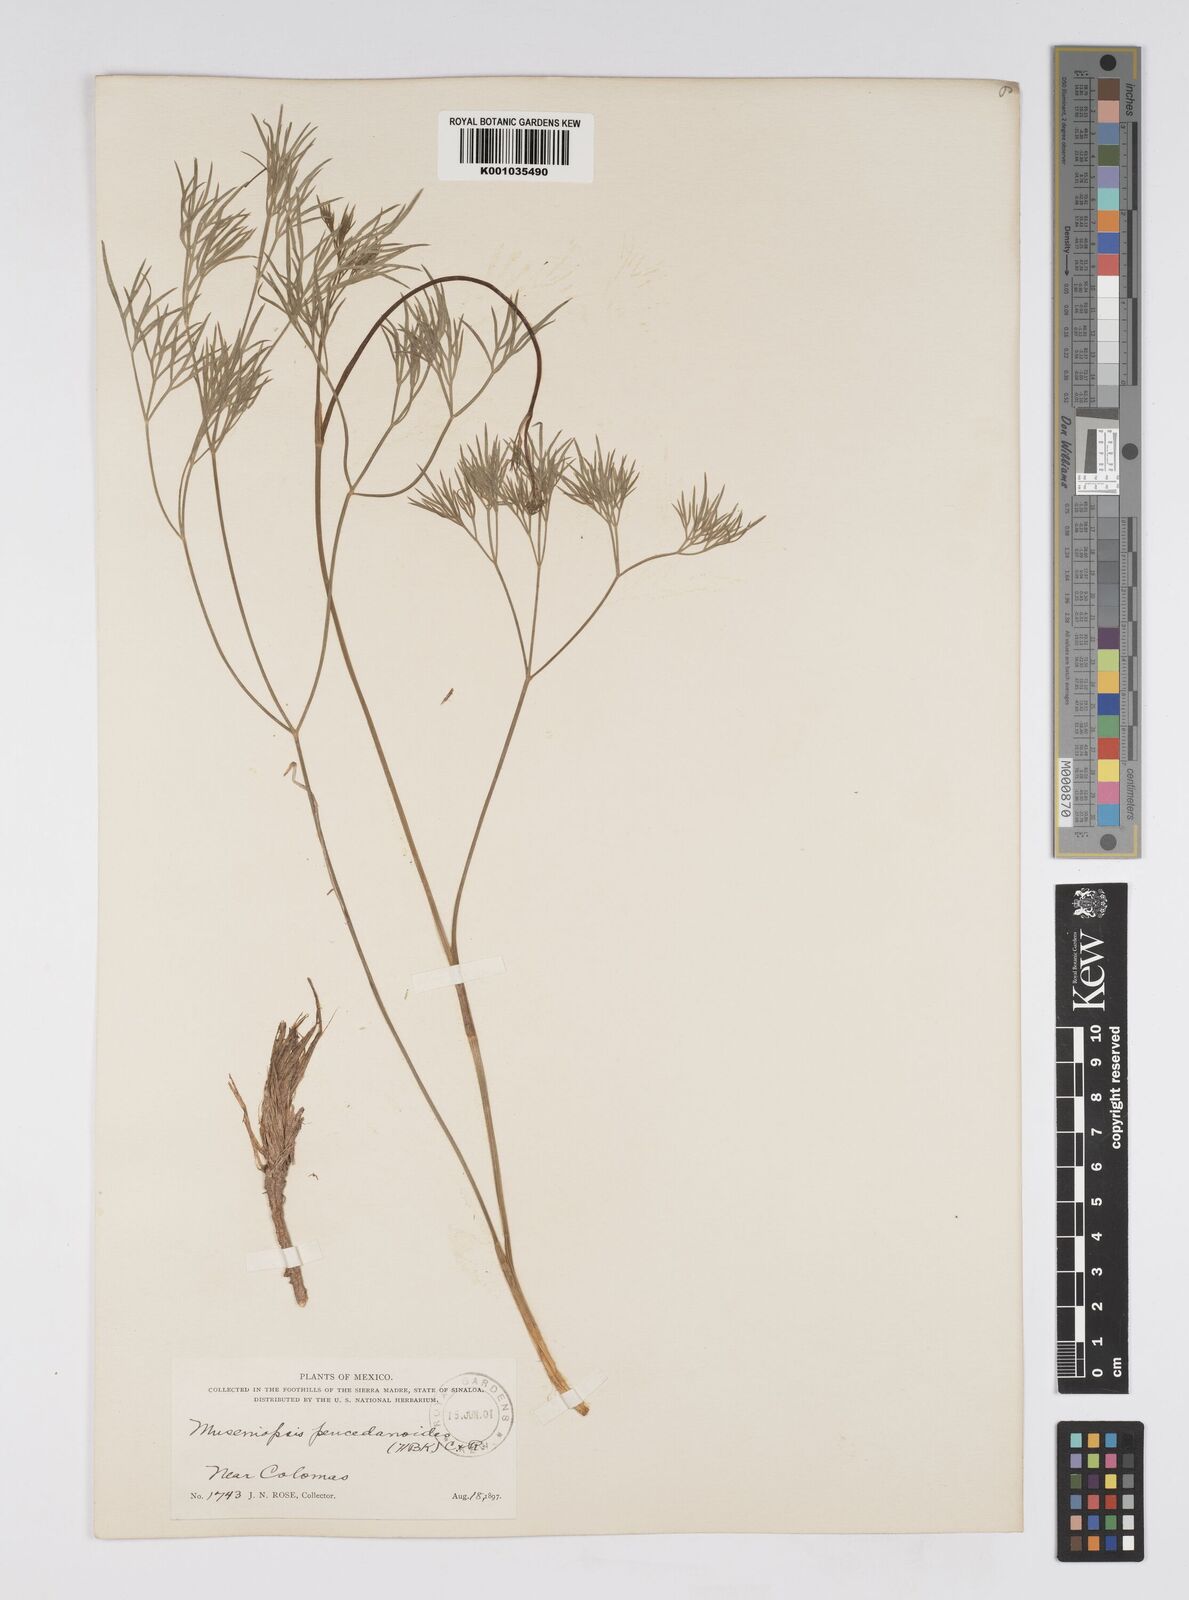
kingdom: Plantae
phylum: Tracheophyta
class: Magnoliopsida
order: Apiales
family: Apiaceae
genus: Donnellsmithia
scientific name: Donnellsmithia juncea
